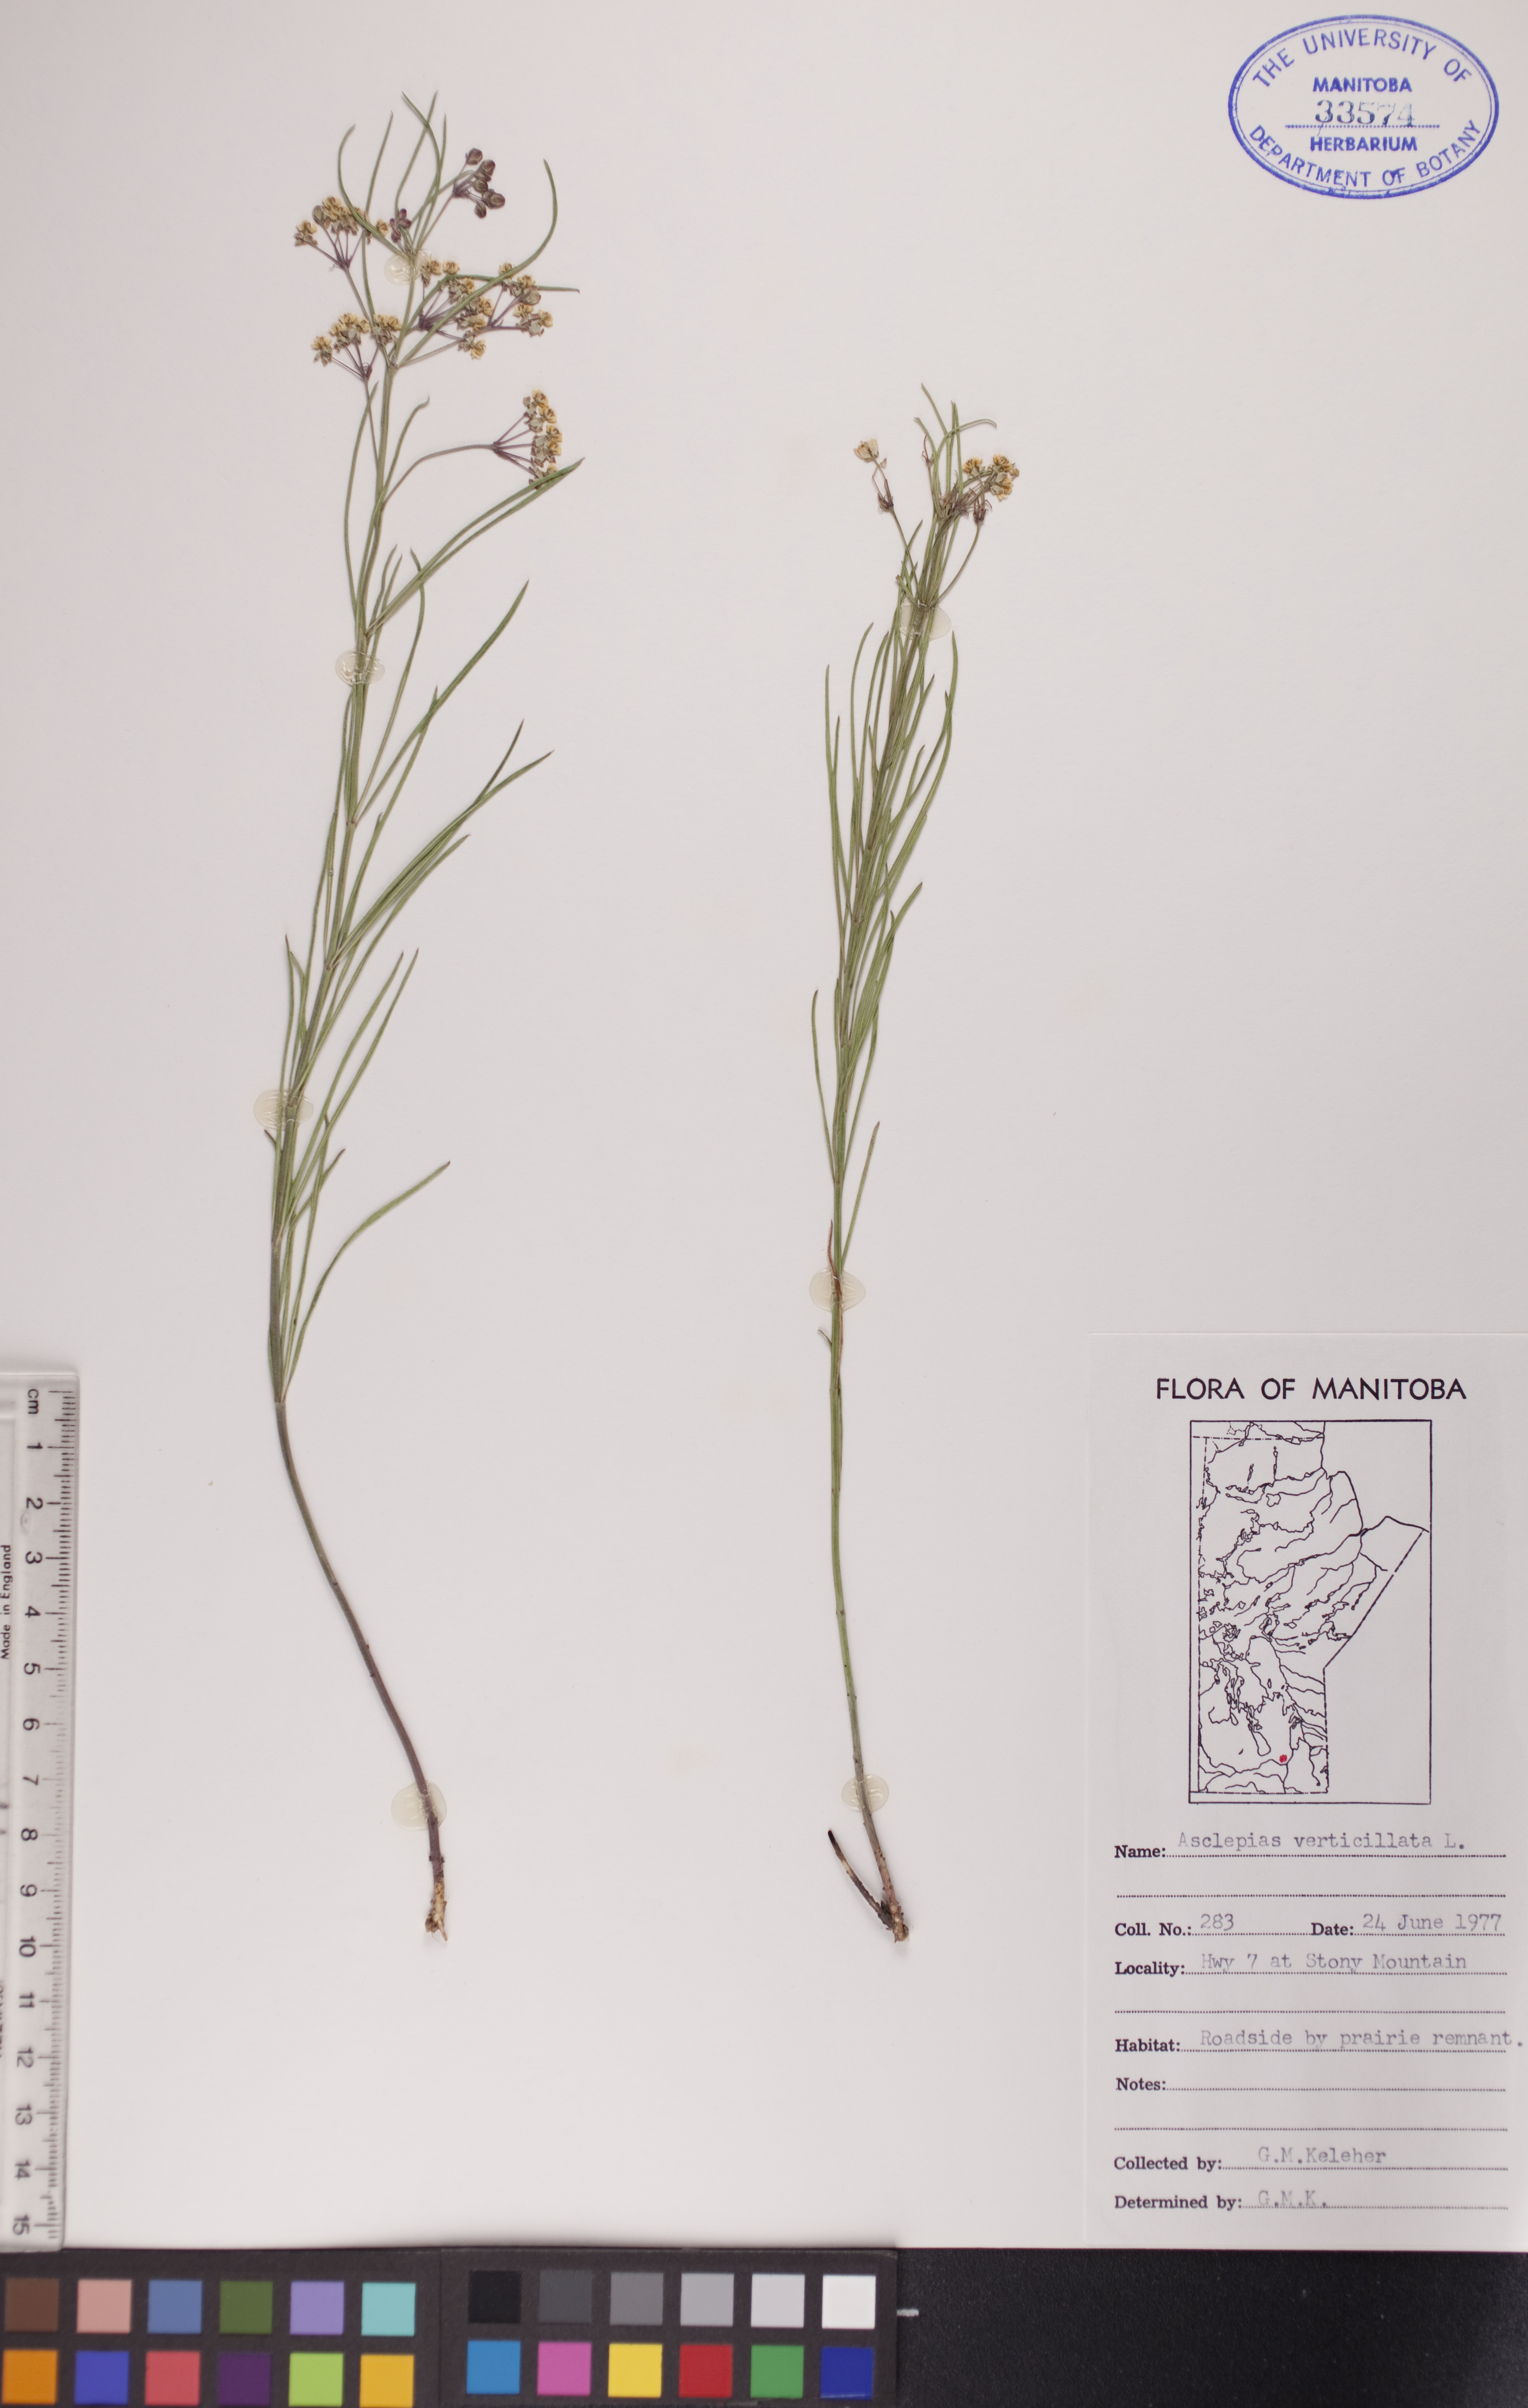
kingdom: Plantae
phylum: Tracheophyta
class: Magnoliopsida
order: Gentianales
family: Apocynaceae
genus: Asclepias
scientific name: Asclepias verticillata
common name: Eastern whorled milkweed
